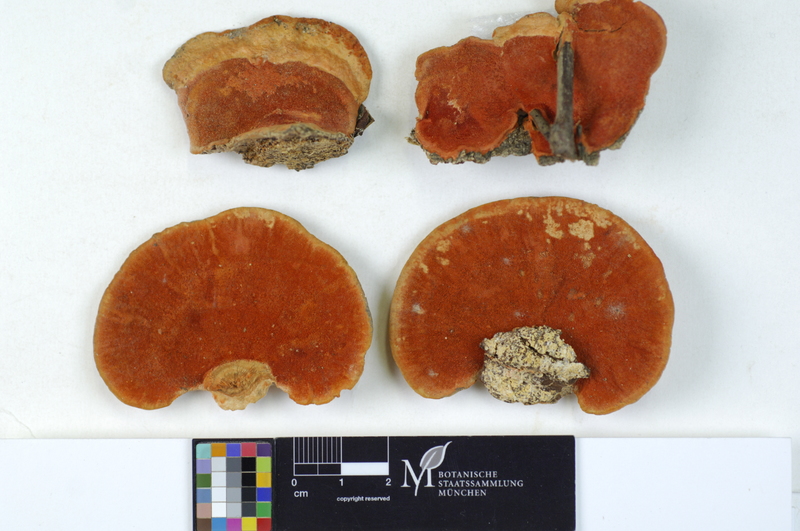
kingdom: Fungi
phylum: Basidiomycota
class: Agaricomycetes
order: Polyporales
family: Polyporaceae
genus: Fabisporus
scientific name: Fabisporus sanguineus
